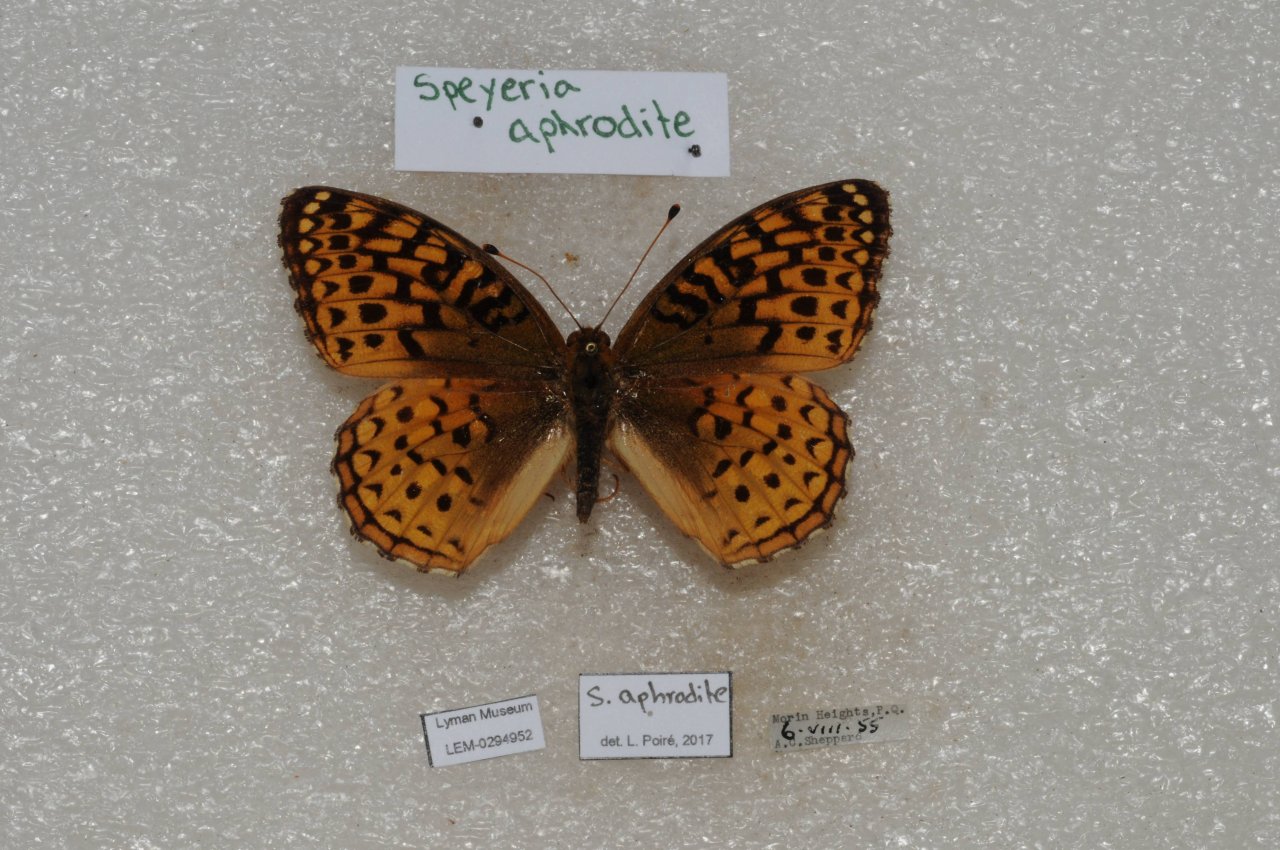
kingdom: Animalia
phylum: Arthropoda
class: Insecta
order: Lepidoptera
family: Nymphalidae
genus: Speyeria
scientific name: Speyeria aphrodite
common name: Aphrodite Fritillary
